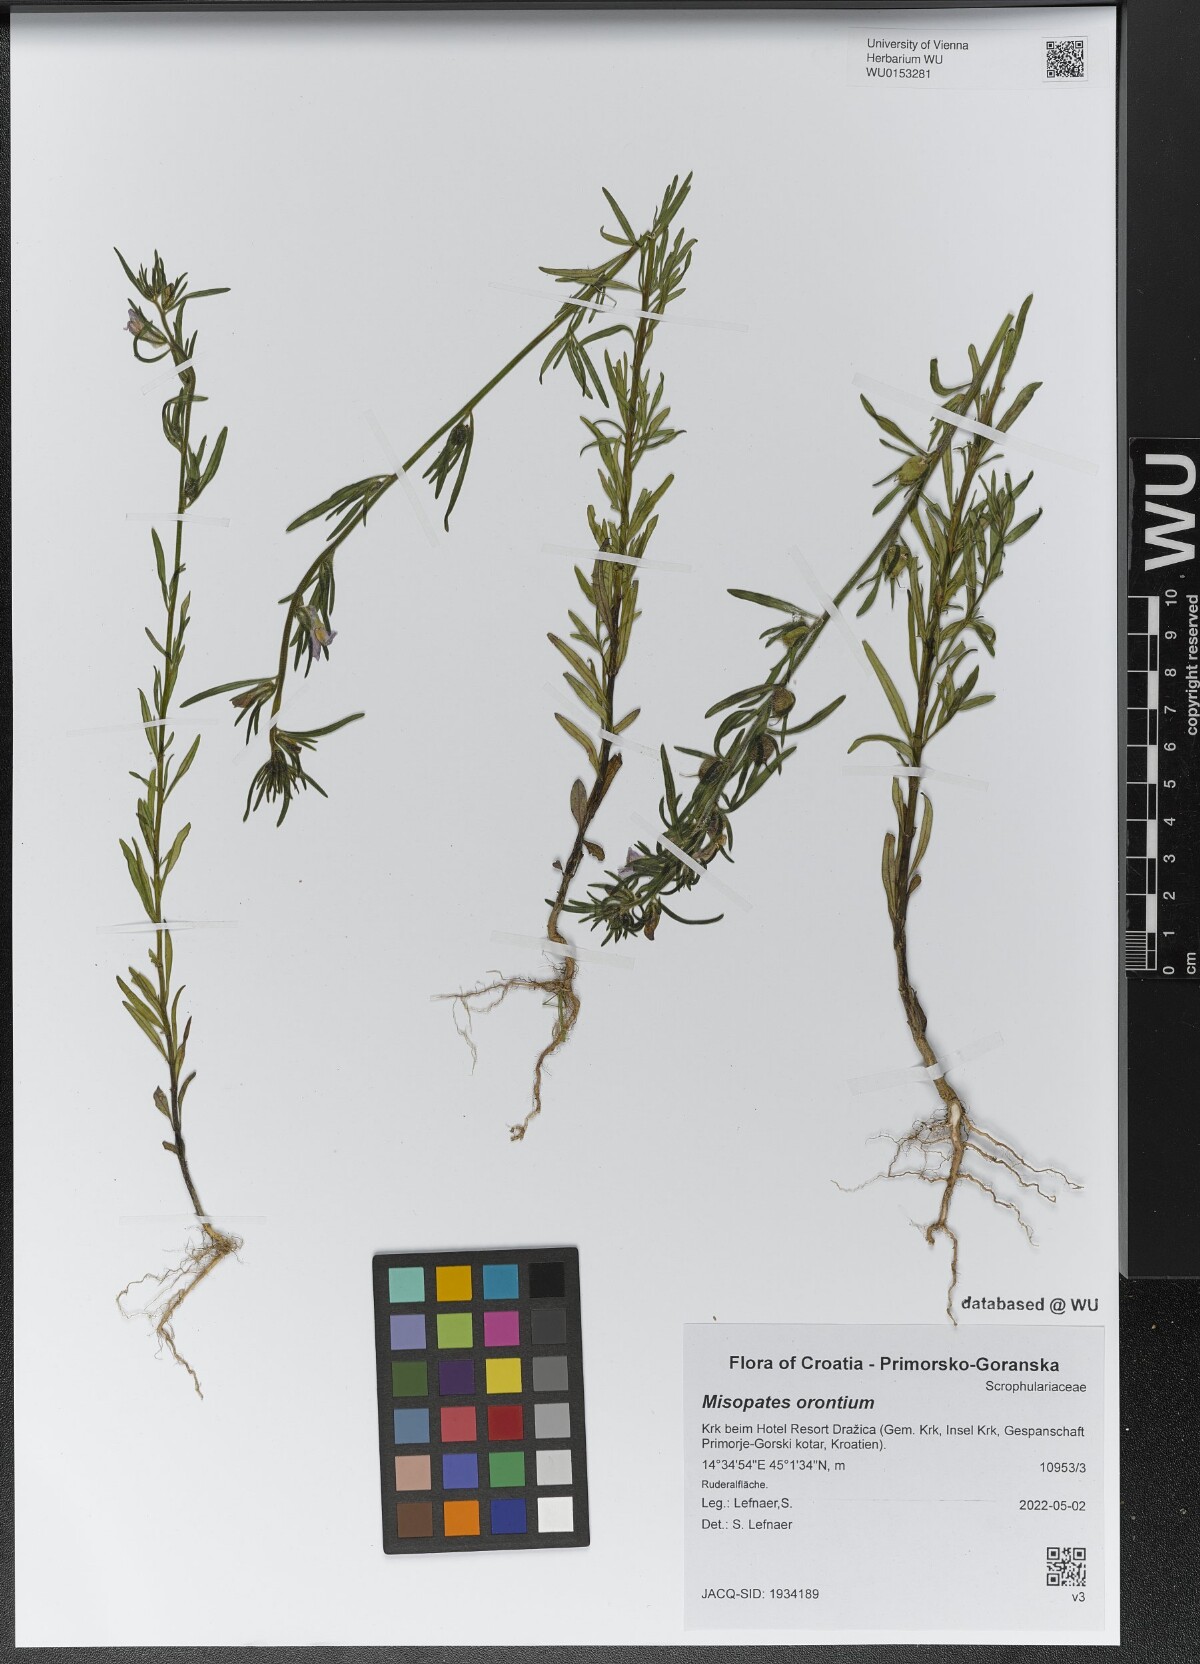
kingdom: Plantae
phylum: Tracheophyta
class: Magnoliopsida
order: Lamiales
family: Plantaginaceae
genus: Misopates
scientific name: Misopates orontium
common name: Weasel's-snout
